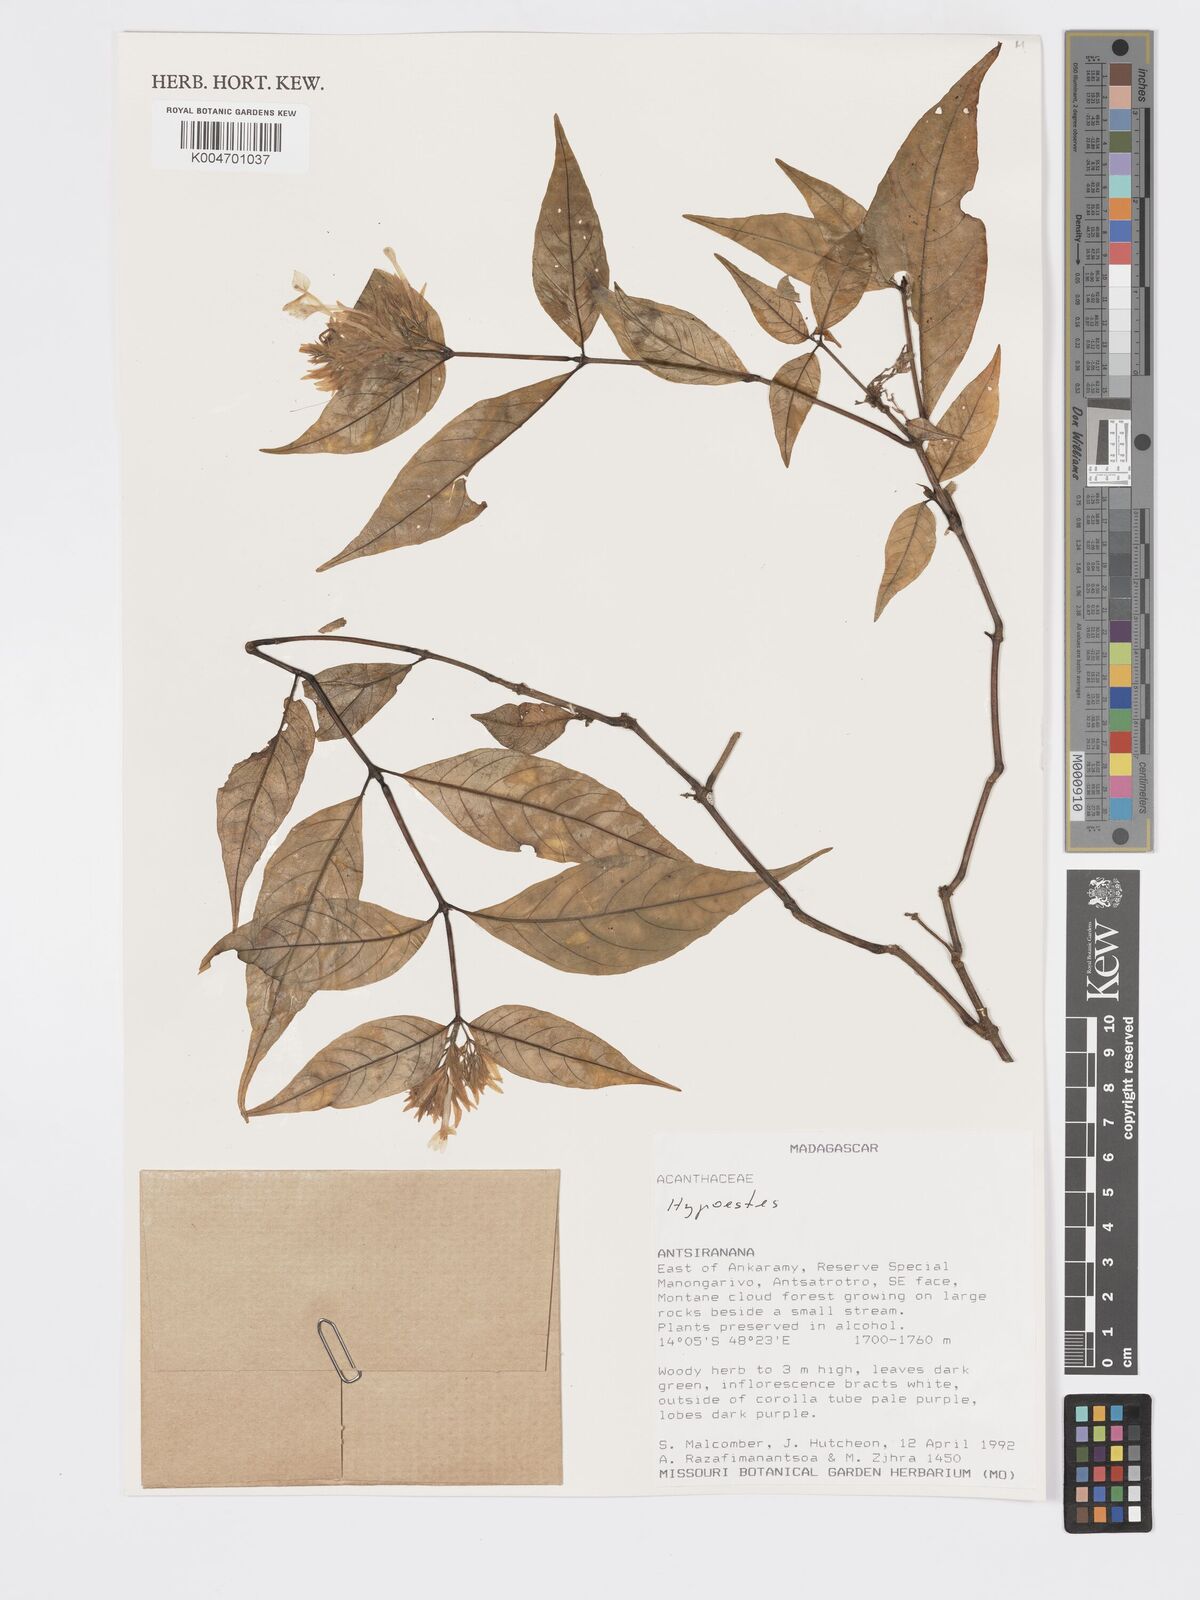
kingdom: Plantae
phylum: Tracheophyta
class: Magnoliopsida
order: Lamiales
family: Acanthaceae
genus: Hypoestes
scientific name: Hypoestes
